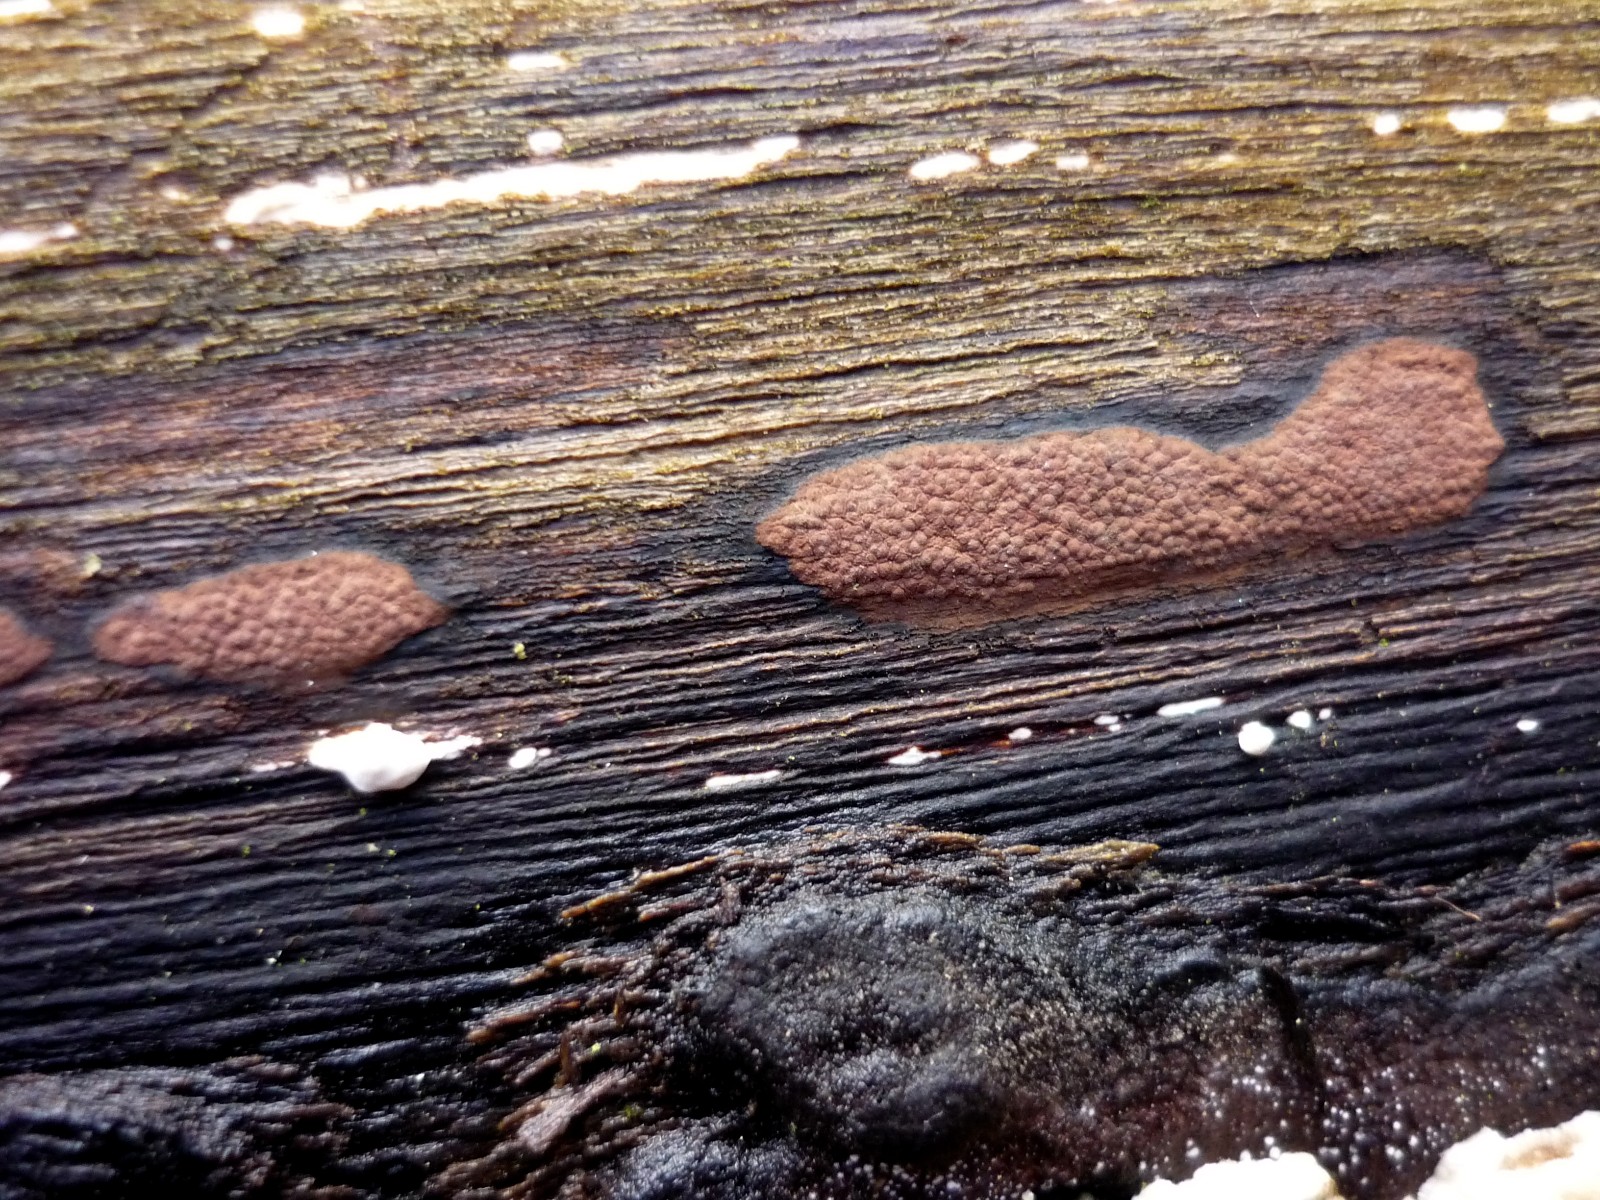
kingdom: Fungi
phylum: Ascomycota
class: Sordariomycetes
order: Xylariales
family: Hypoxylaceae
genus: Hypoxylon
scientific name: Hypoxylon petriniae
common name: nedsænket kulbær
